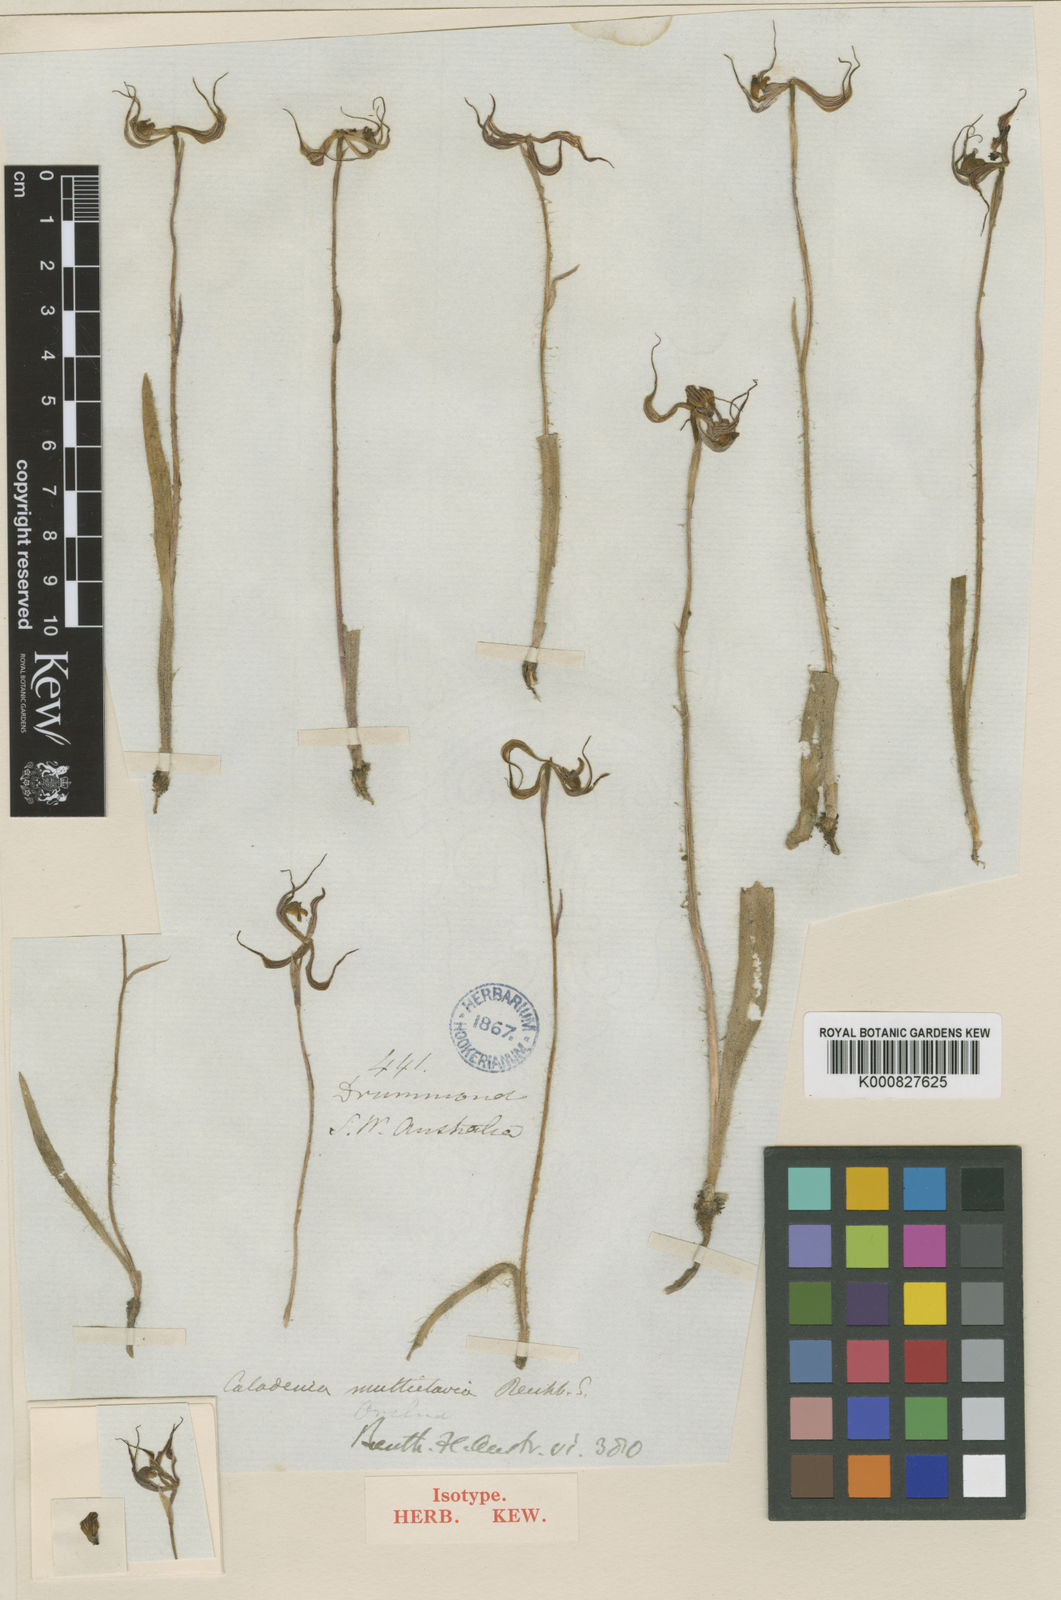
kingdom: Plantae
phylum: Tracheophyta
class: Liliopsida
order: Asparagales
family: Orchidaceae
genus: Caladenia
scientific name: Caladenia multiclavia
